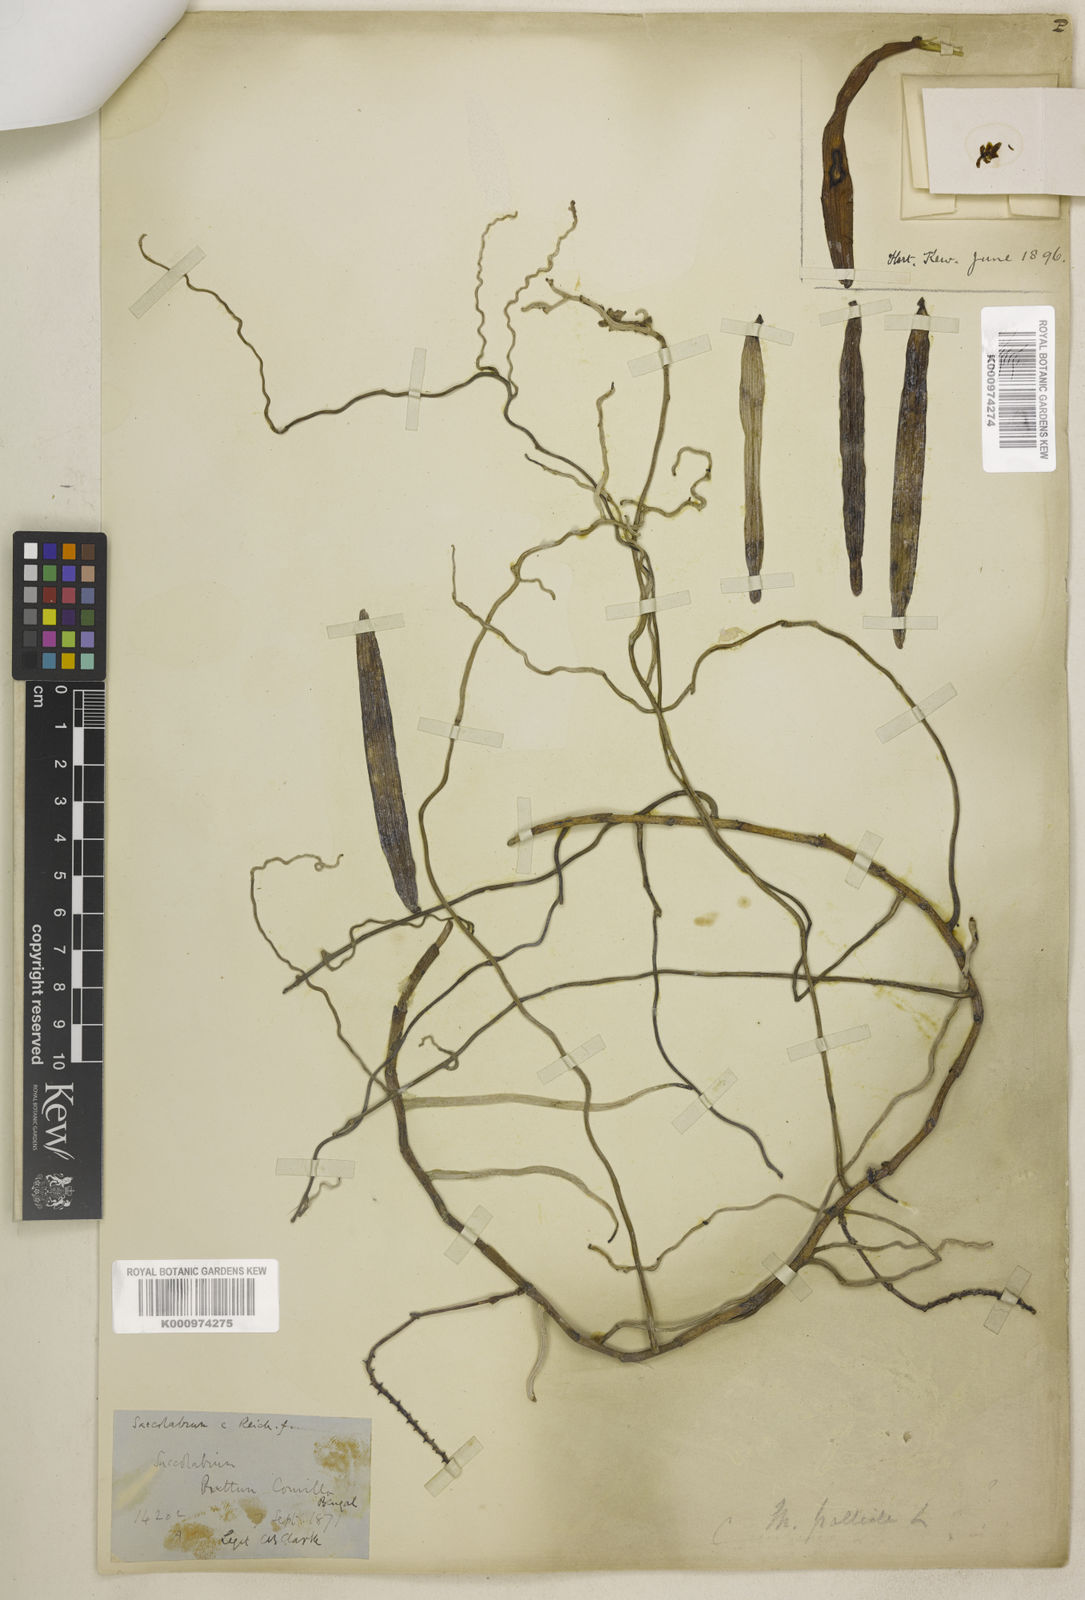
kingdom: Plantae
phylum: Tracheophyta
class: Liliopsida
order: Asparagales
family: Orchidaceae
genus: Micropera
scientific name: Micropera pallida
